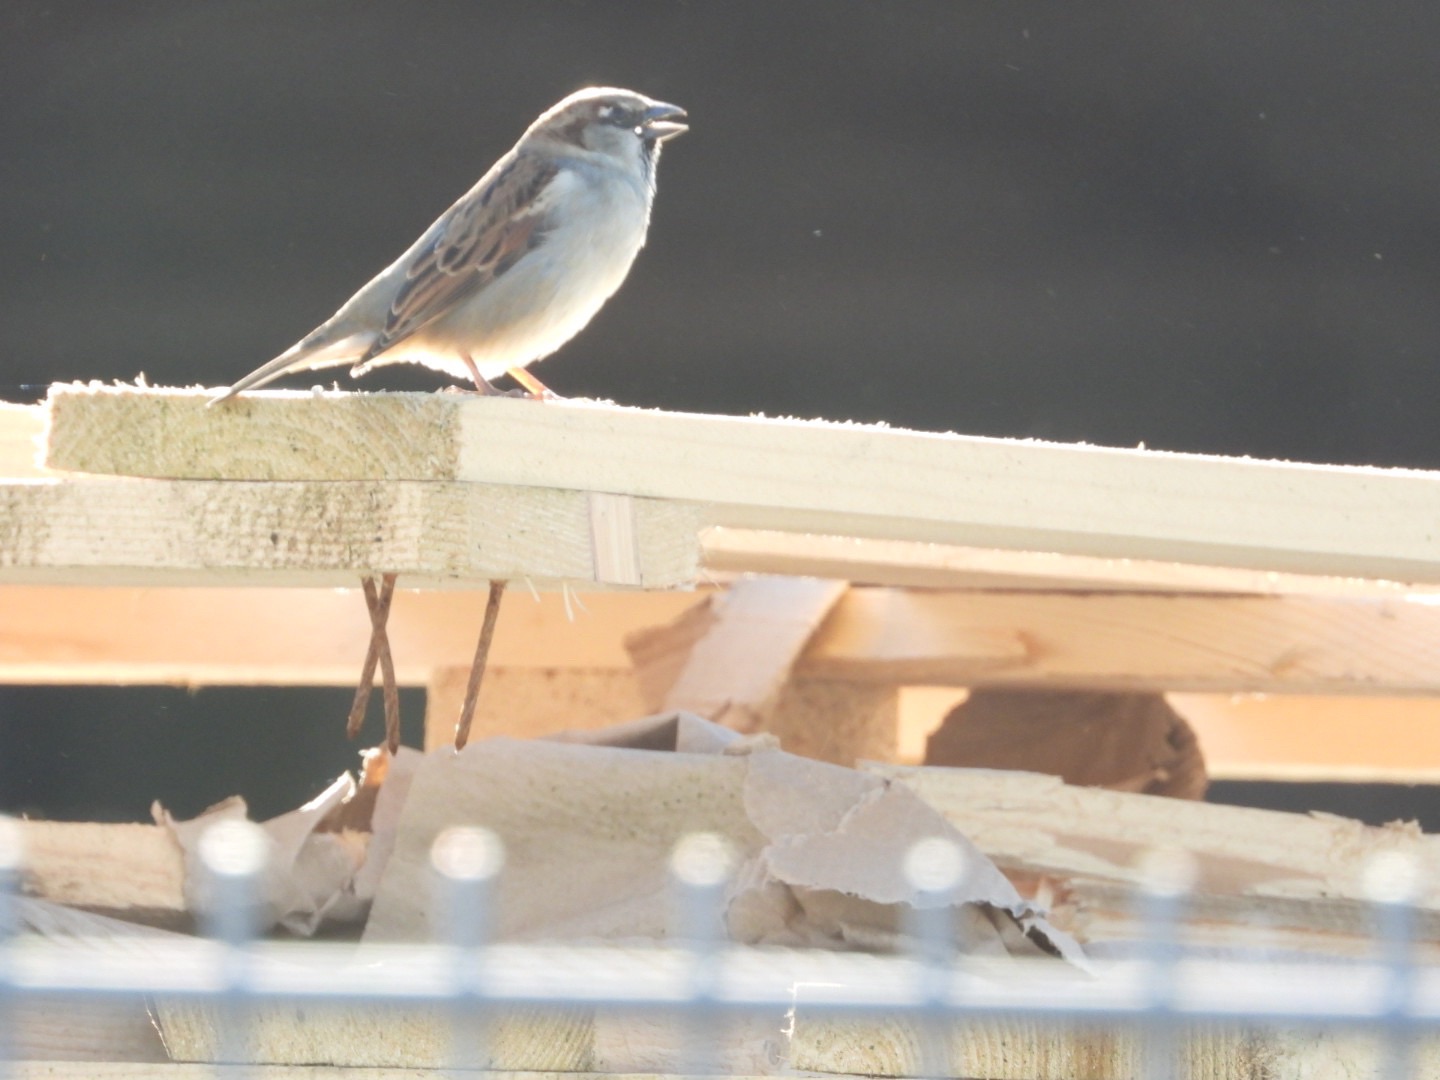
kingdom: Animalia
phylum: Chordata
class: Aves
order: Passeriformes
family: Passeridae
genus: Passer
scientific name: Passer domesticus
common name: Gråspurv
